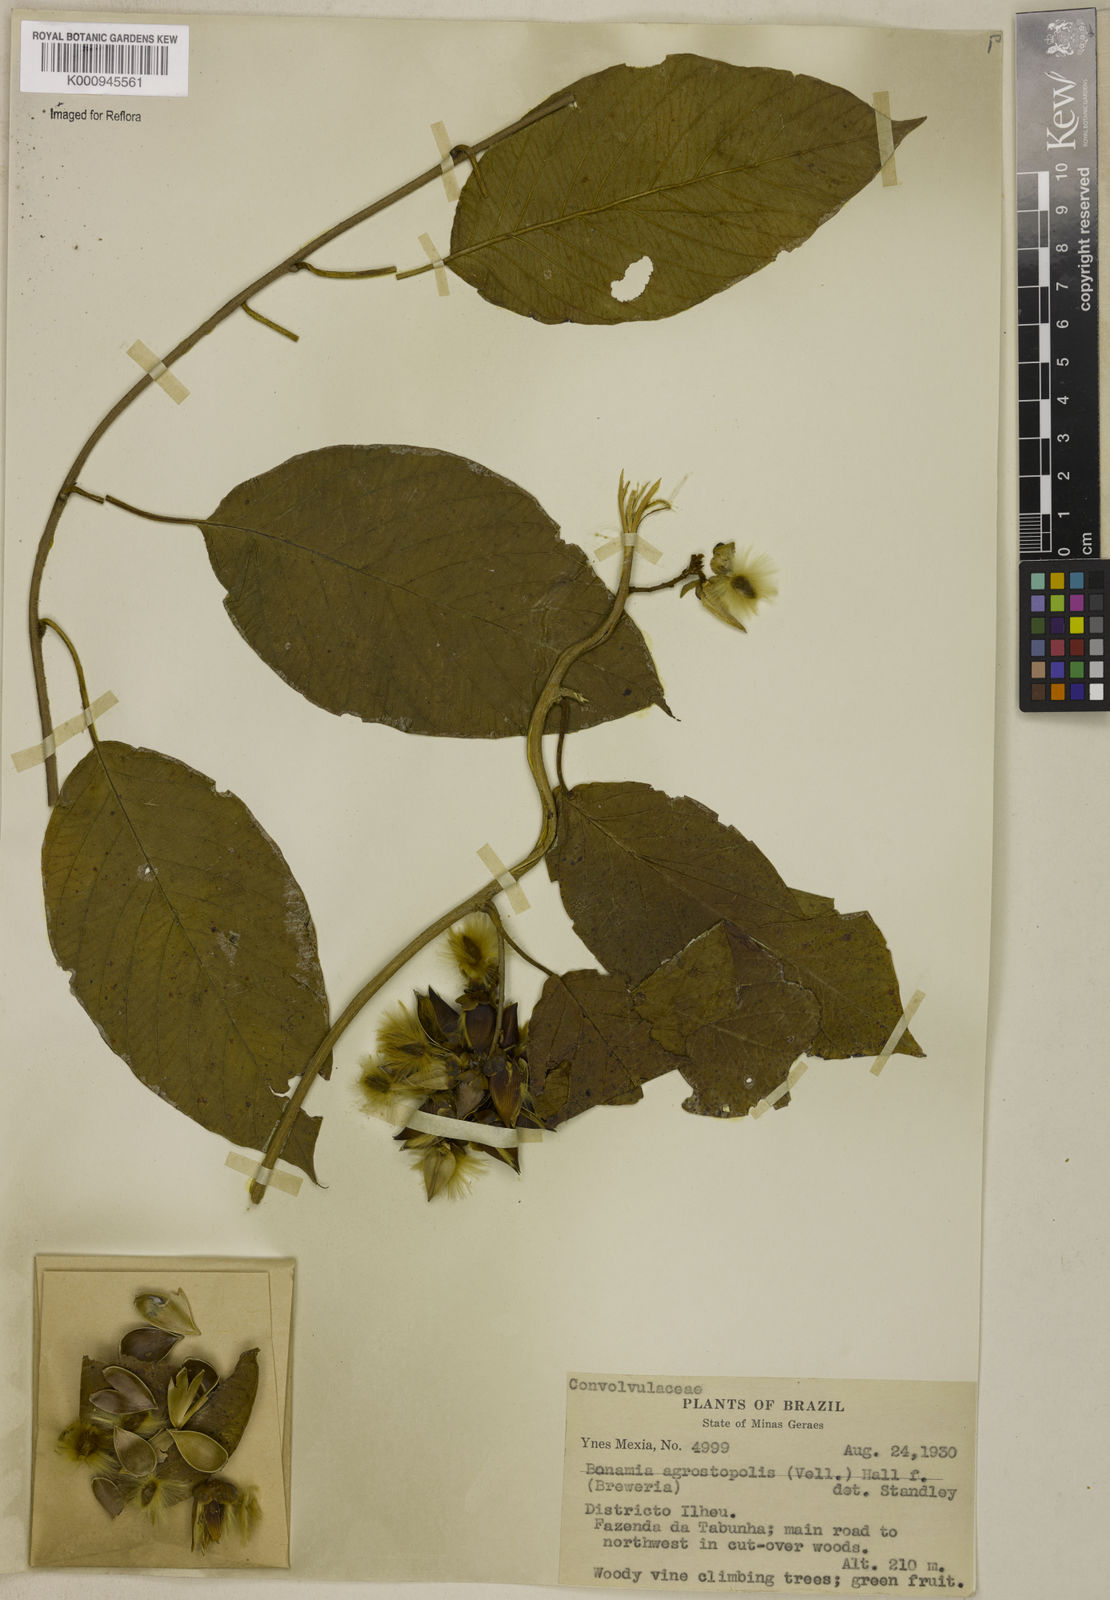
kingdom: Plantae
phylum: Tracheophyta
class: Magnoliopsida
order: Solanales
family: Convolvulaceae
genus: Bonamia
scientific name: Bonamia agrostopolis
